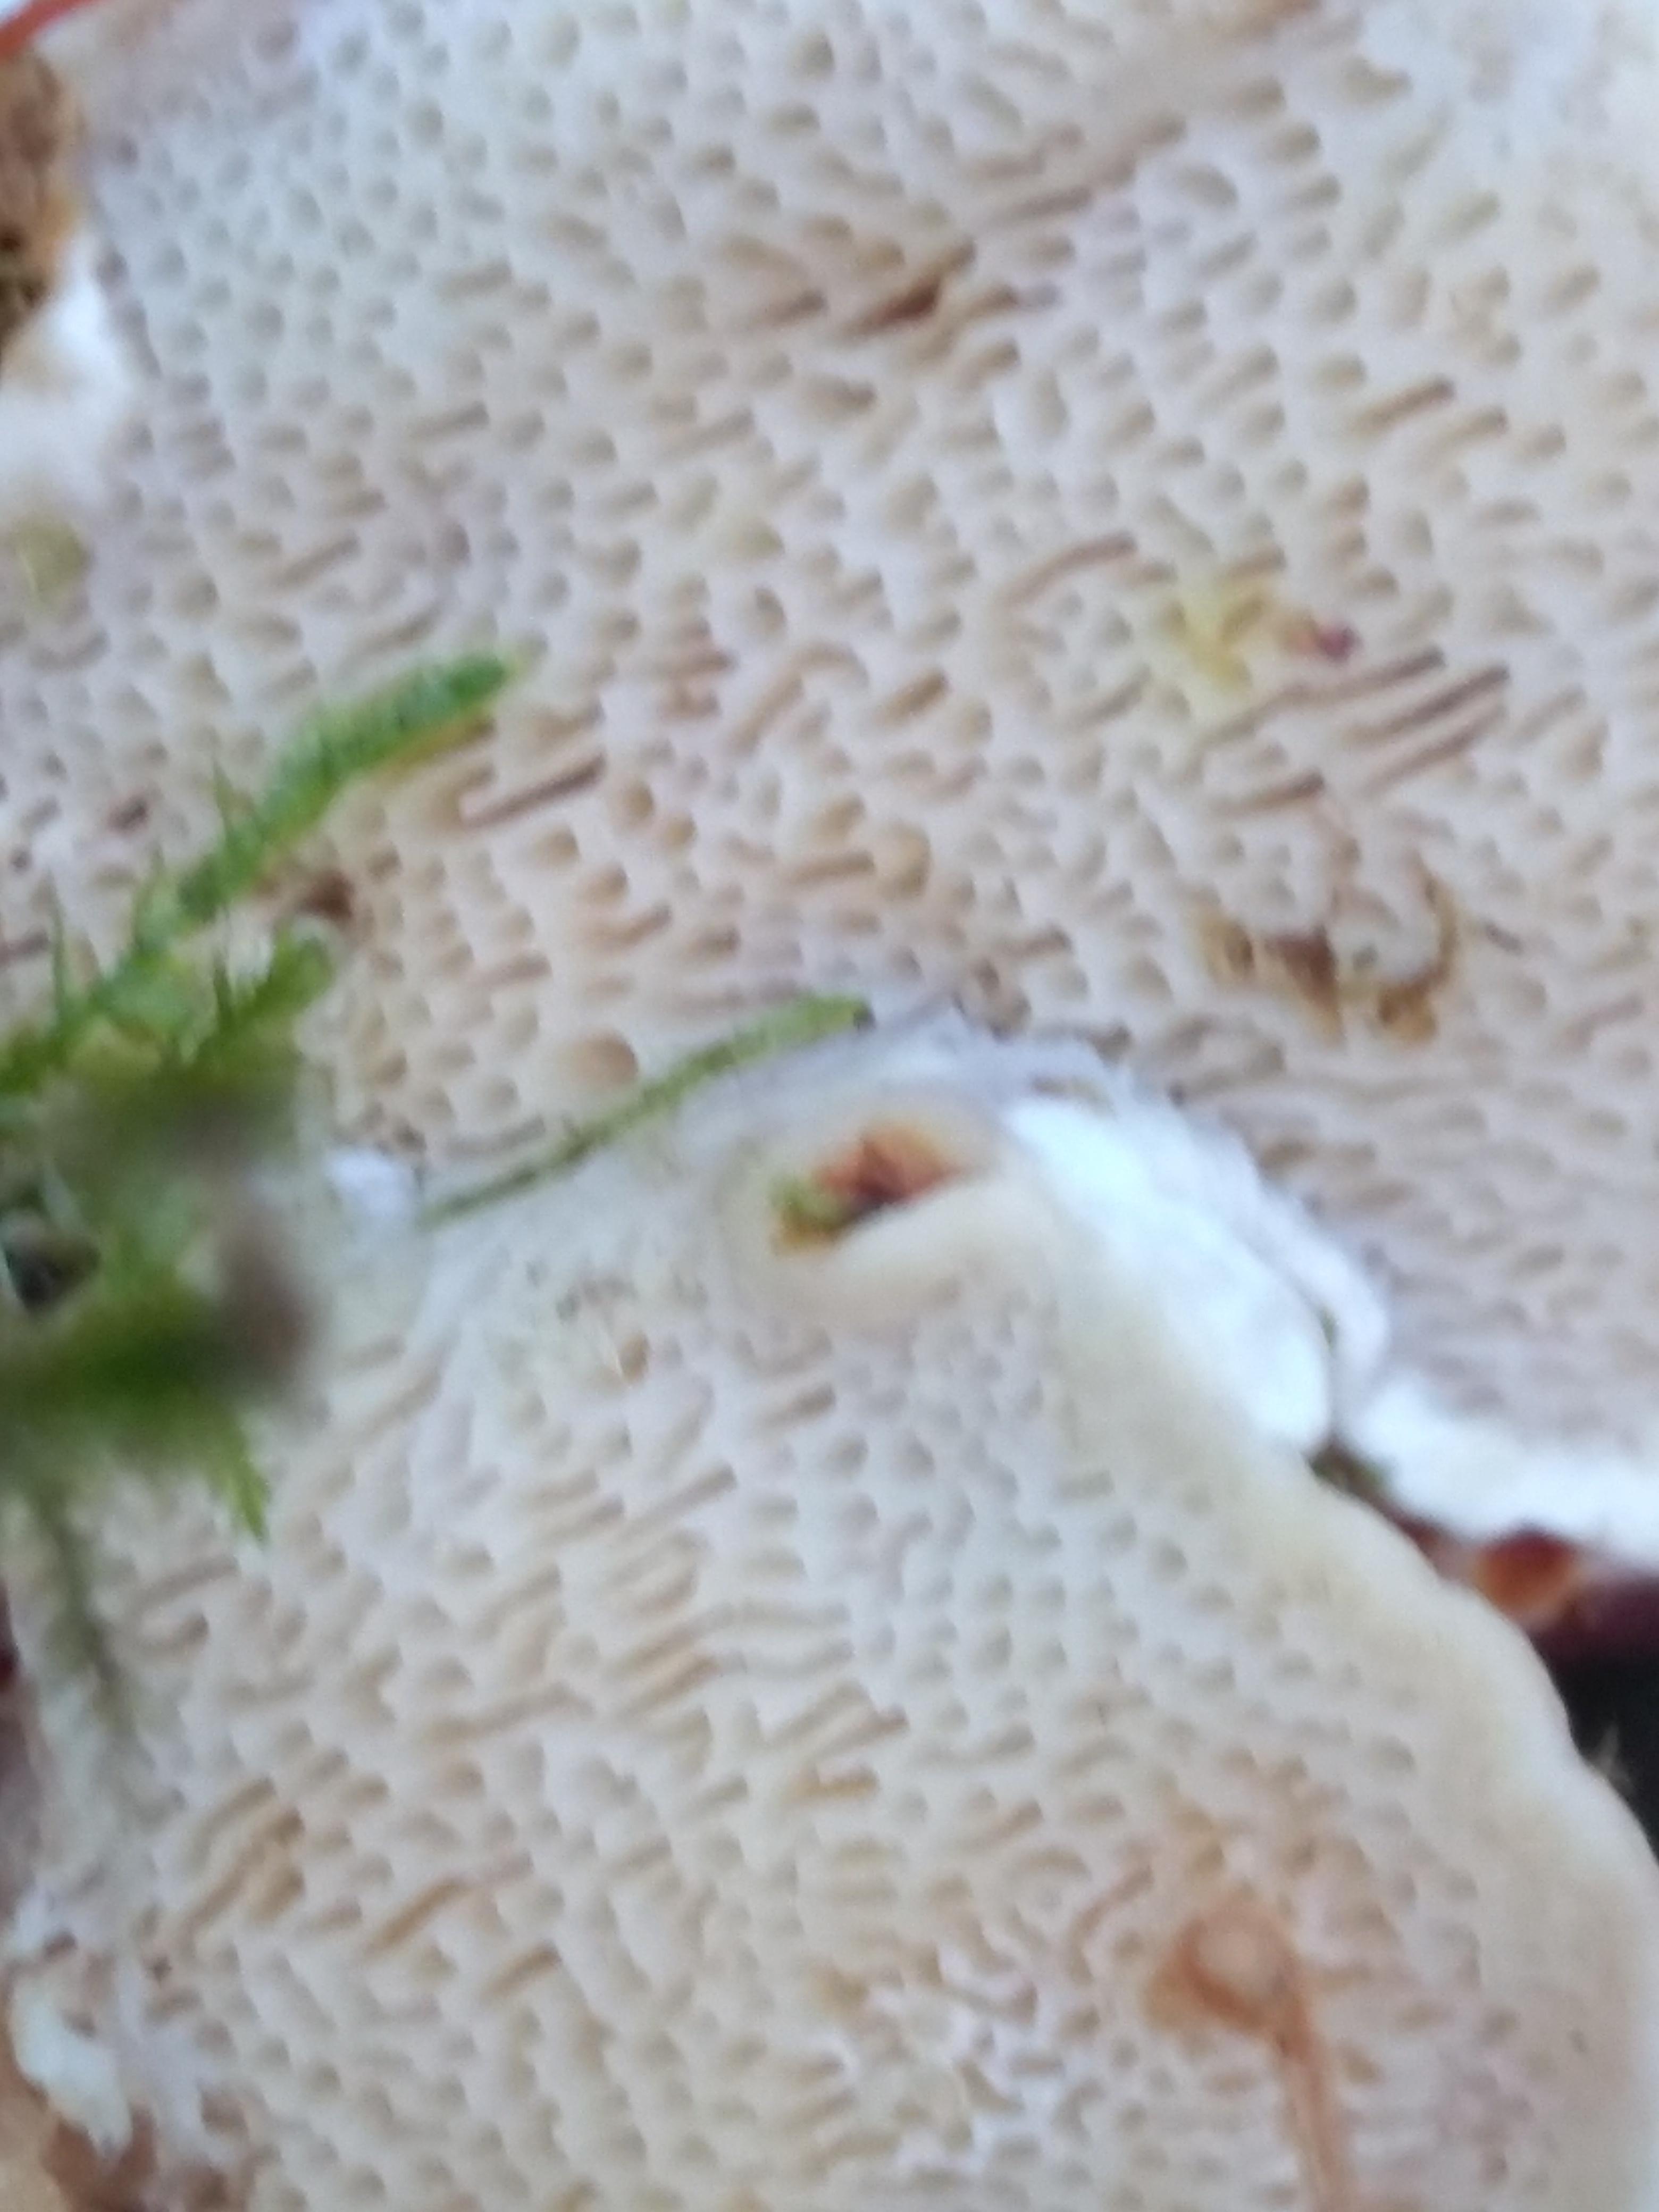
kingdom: Fungi
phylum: Basidiomycota
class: Agaricomycetes
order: Russulales
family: Bondarzewiaceae
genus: Heterobasidion
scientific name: Heterobasidion annosum
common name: almindelig rodfordærver
